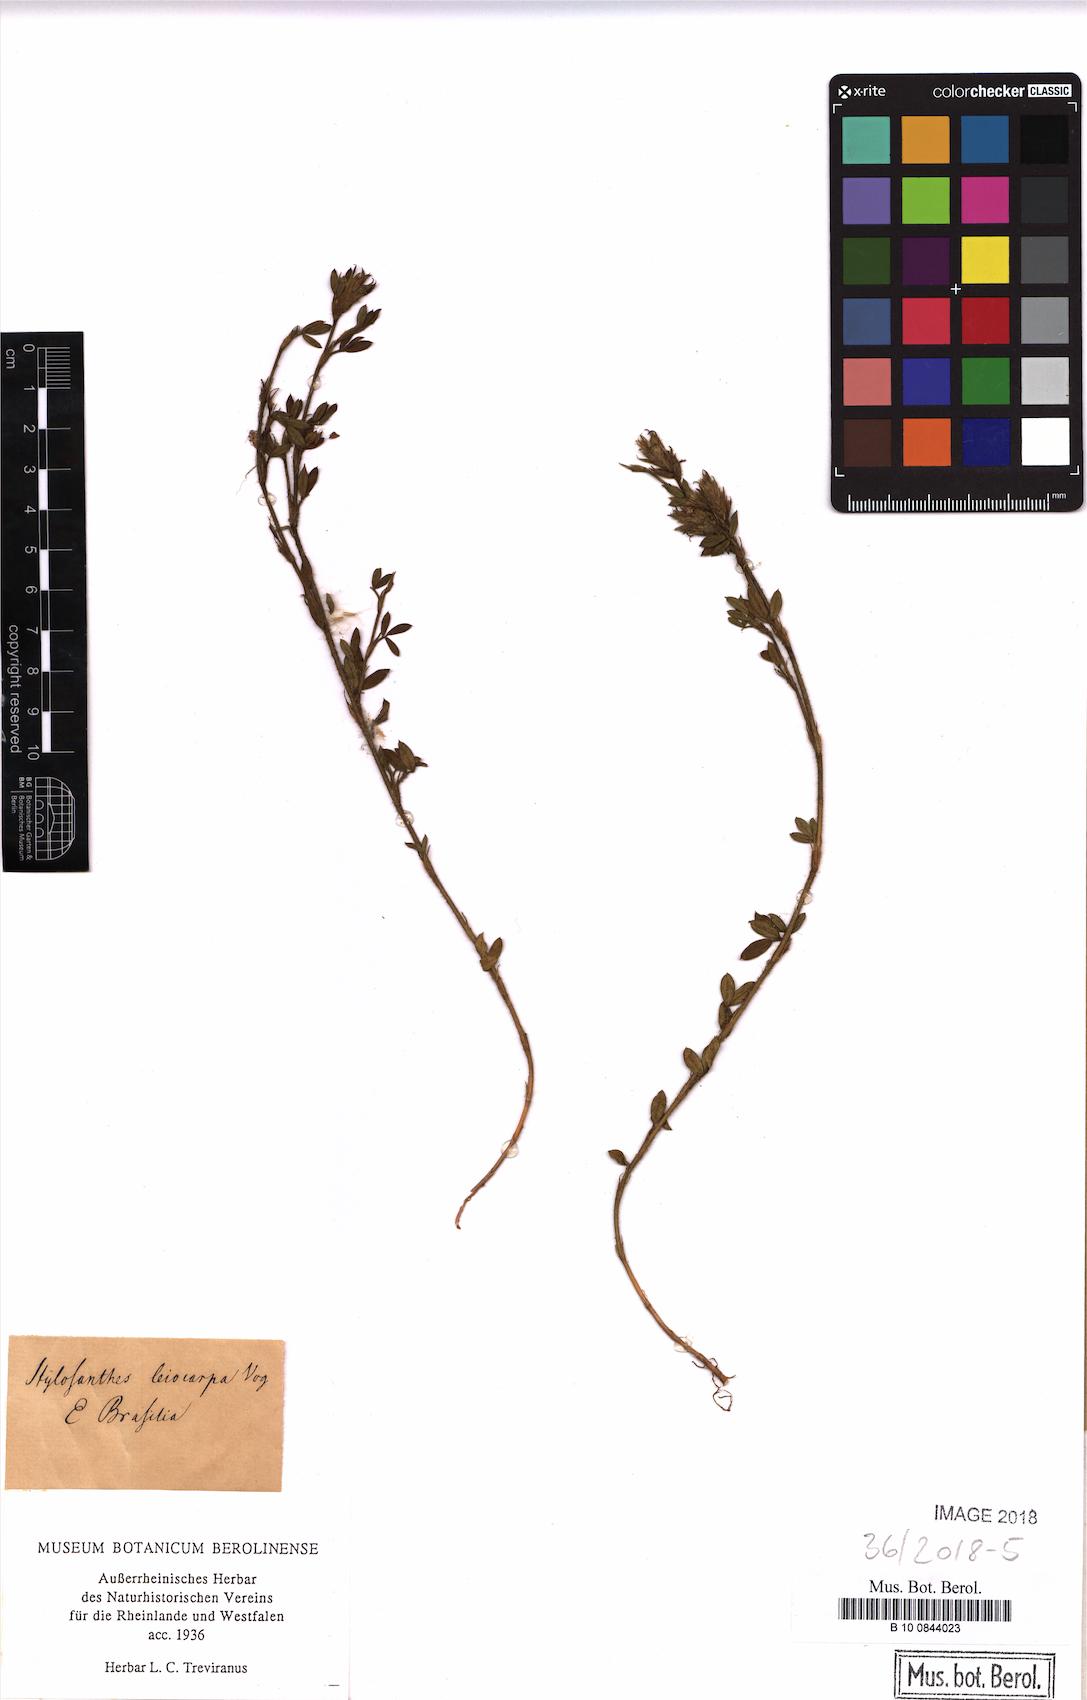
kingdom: Plantae
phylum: Tracheophyta
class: Magnoliopsida
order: Fabales
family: Fabaceae
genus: Stylosanthes
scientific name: Stylosanthes leiocarpa
